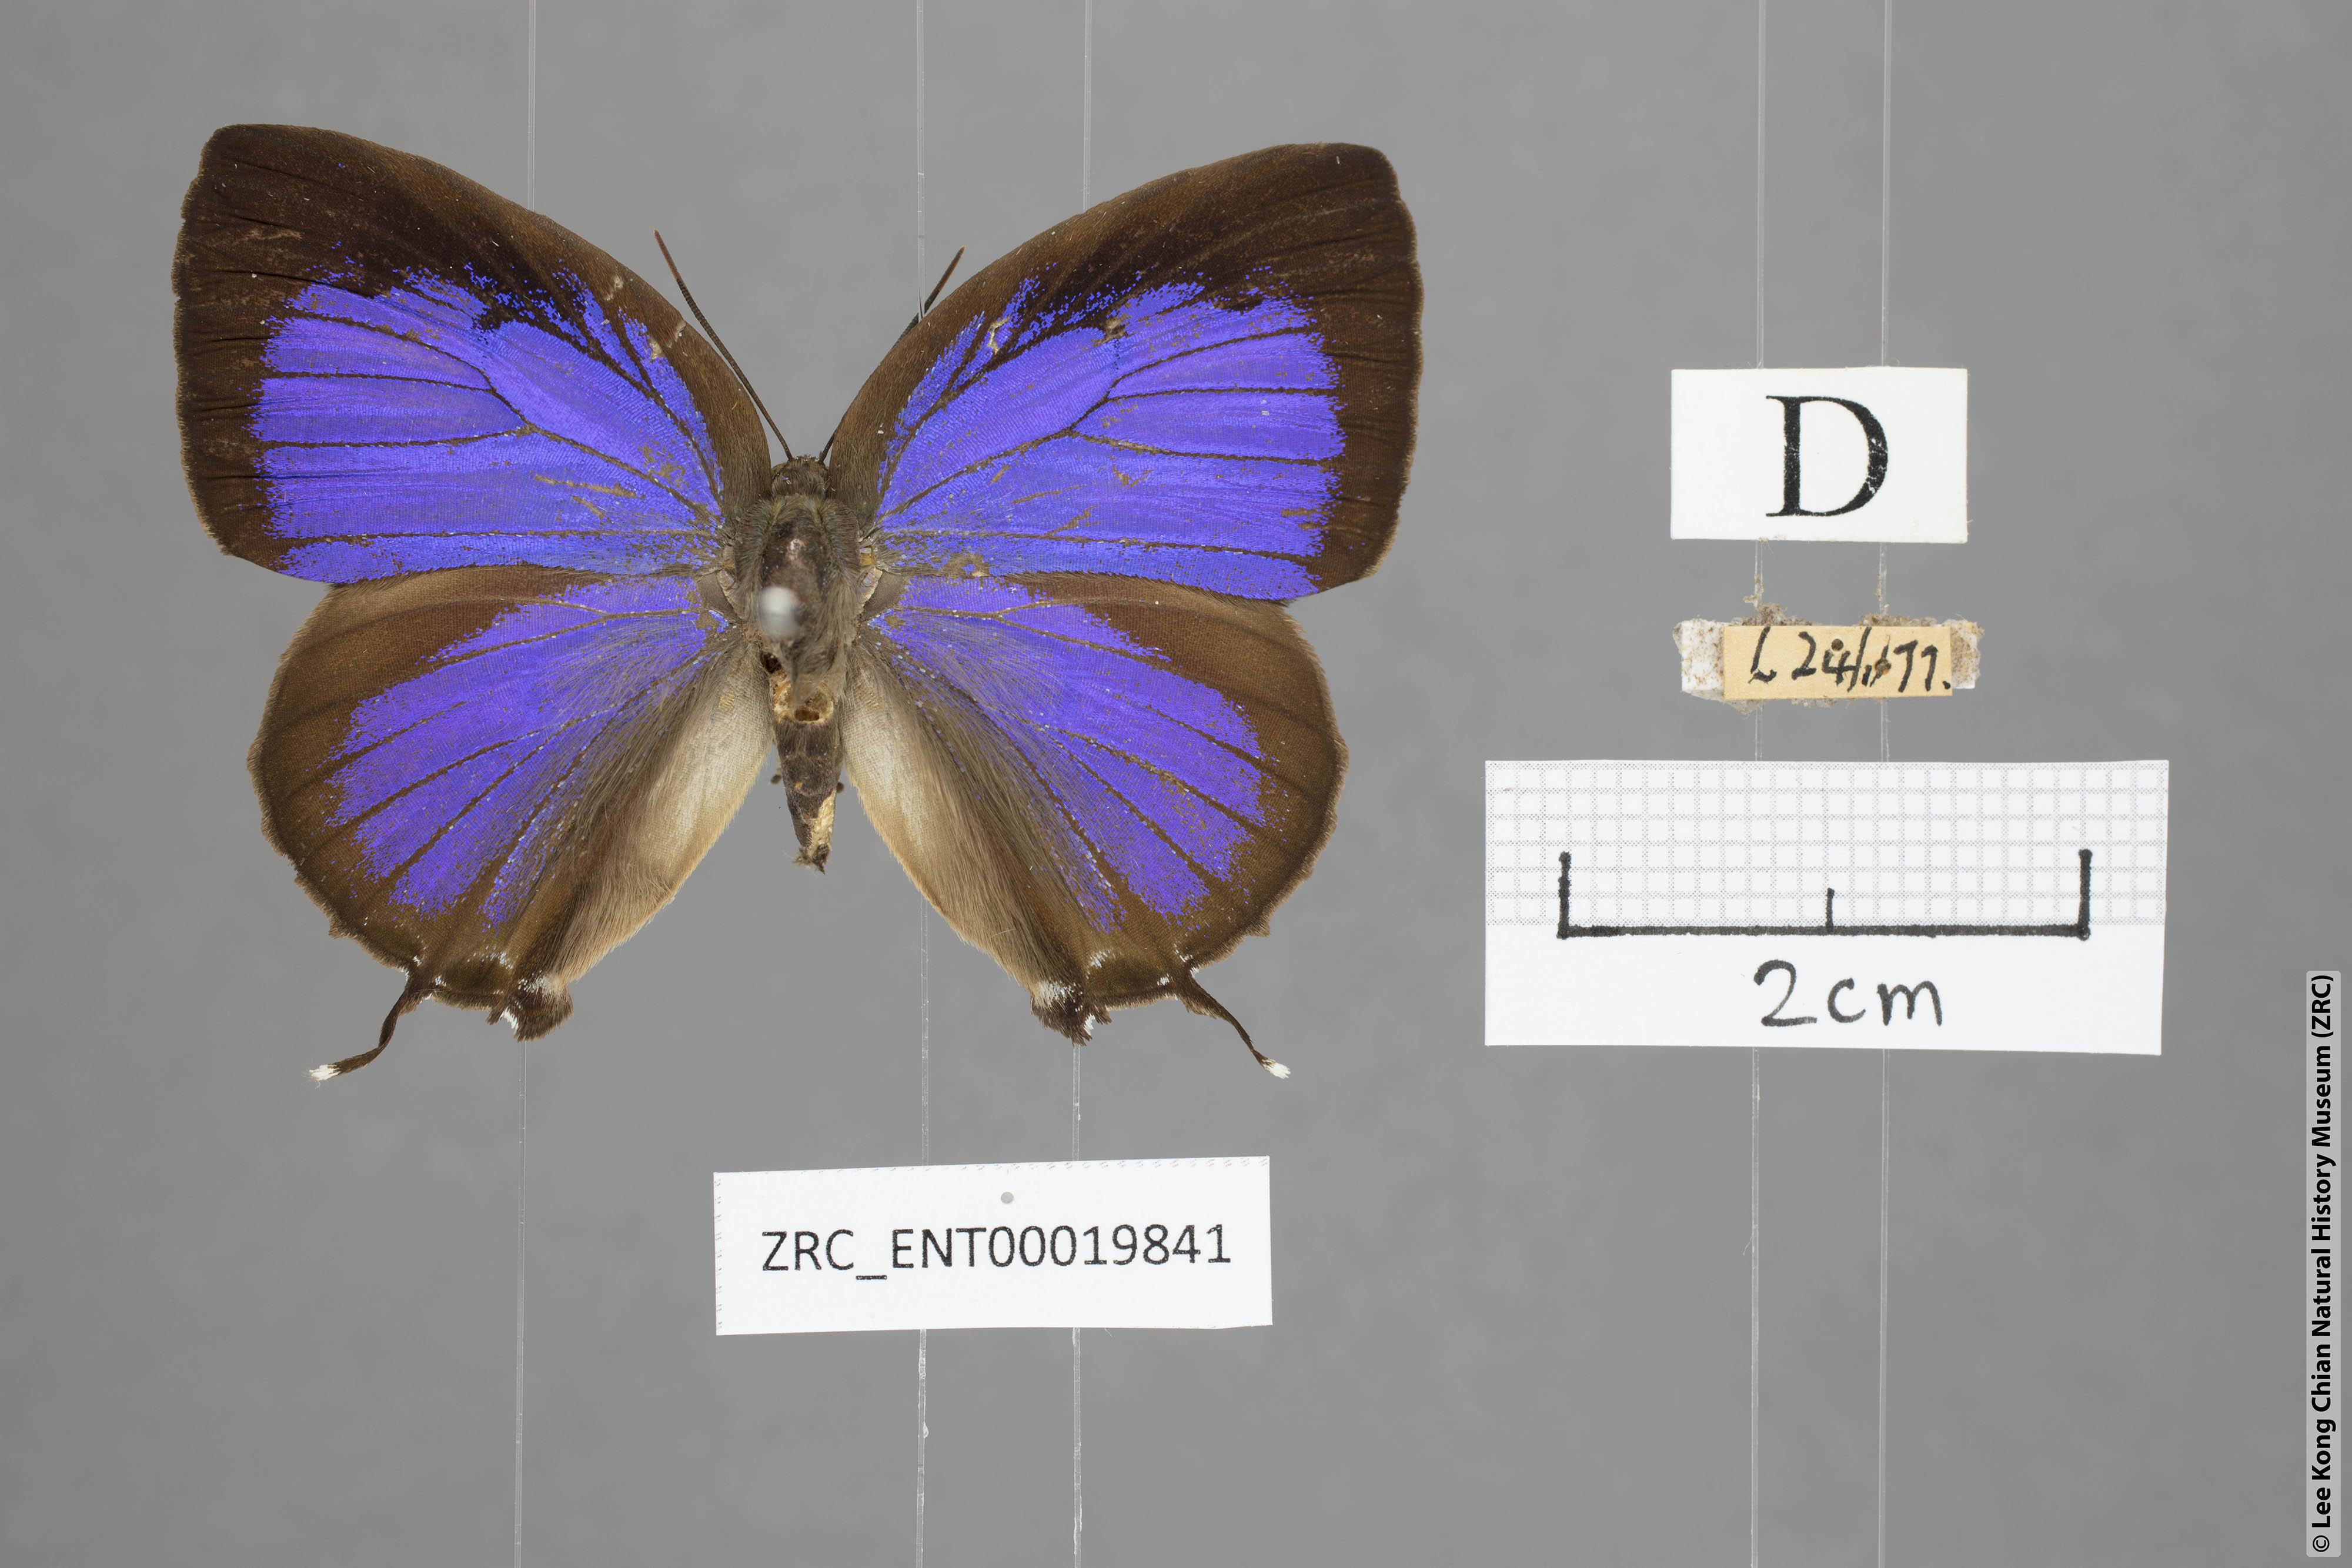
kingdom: Animalia
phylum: Arthropoda
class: Insecta
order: Lepidoptera
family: Lycaenidae
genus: Arhopala
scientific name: Arhopala
